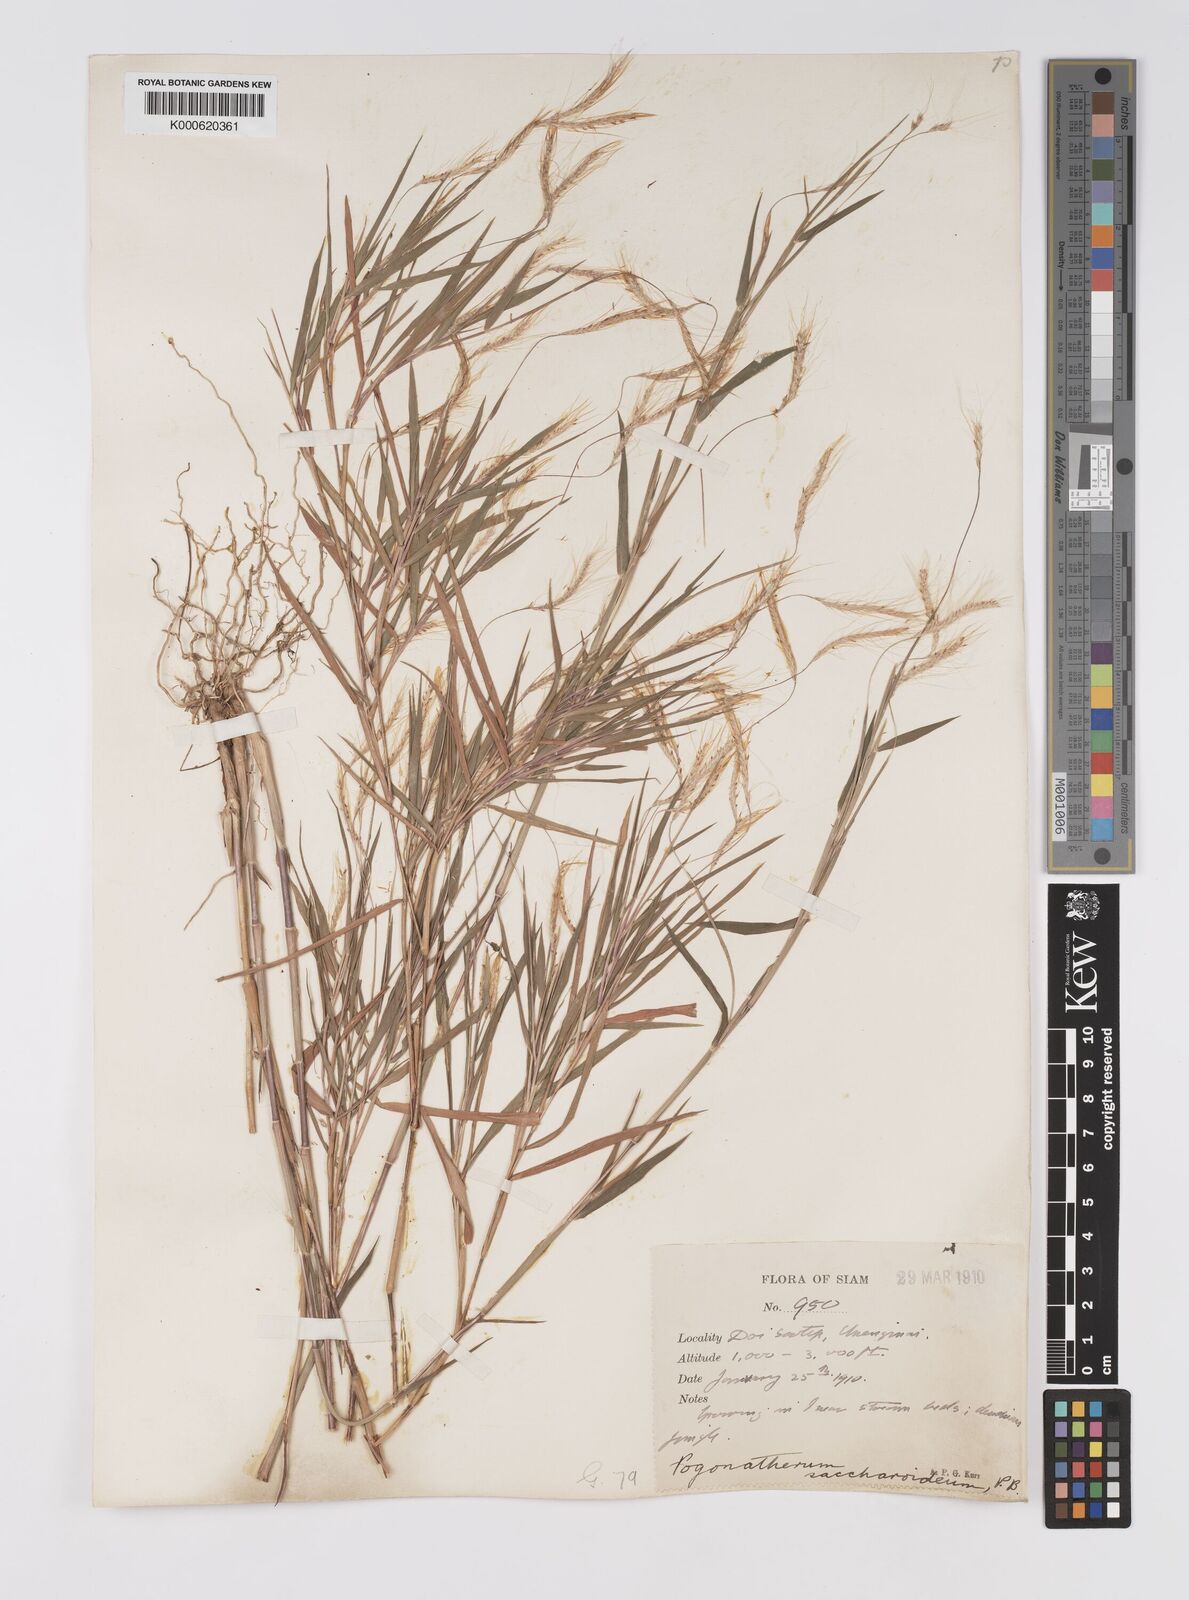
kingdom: Plantae
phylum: Tracheophyta
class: Liliopsida
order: Poales
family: Poaceae
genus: Pogonatherum
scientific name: Pogonatherum paniceum
